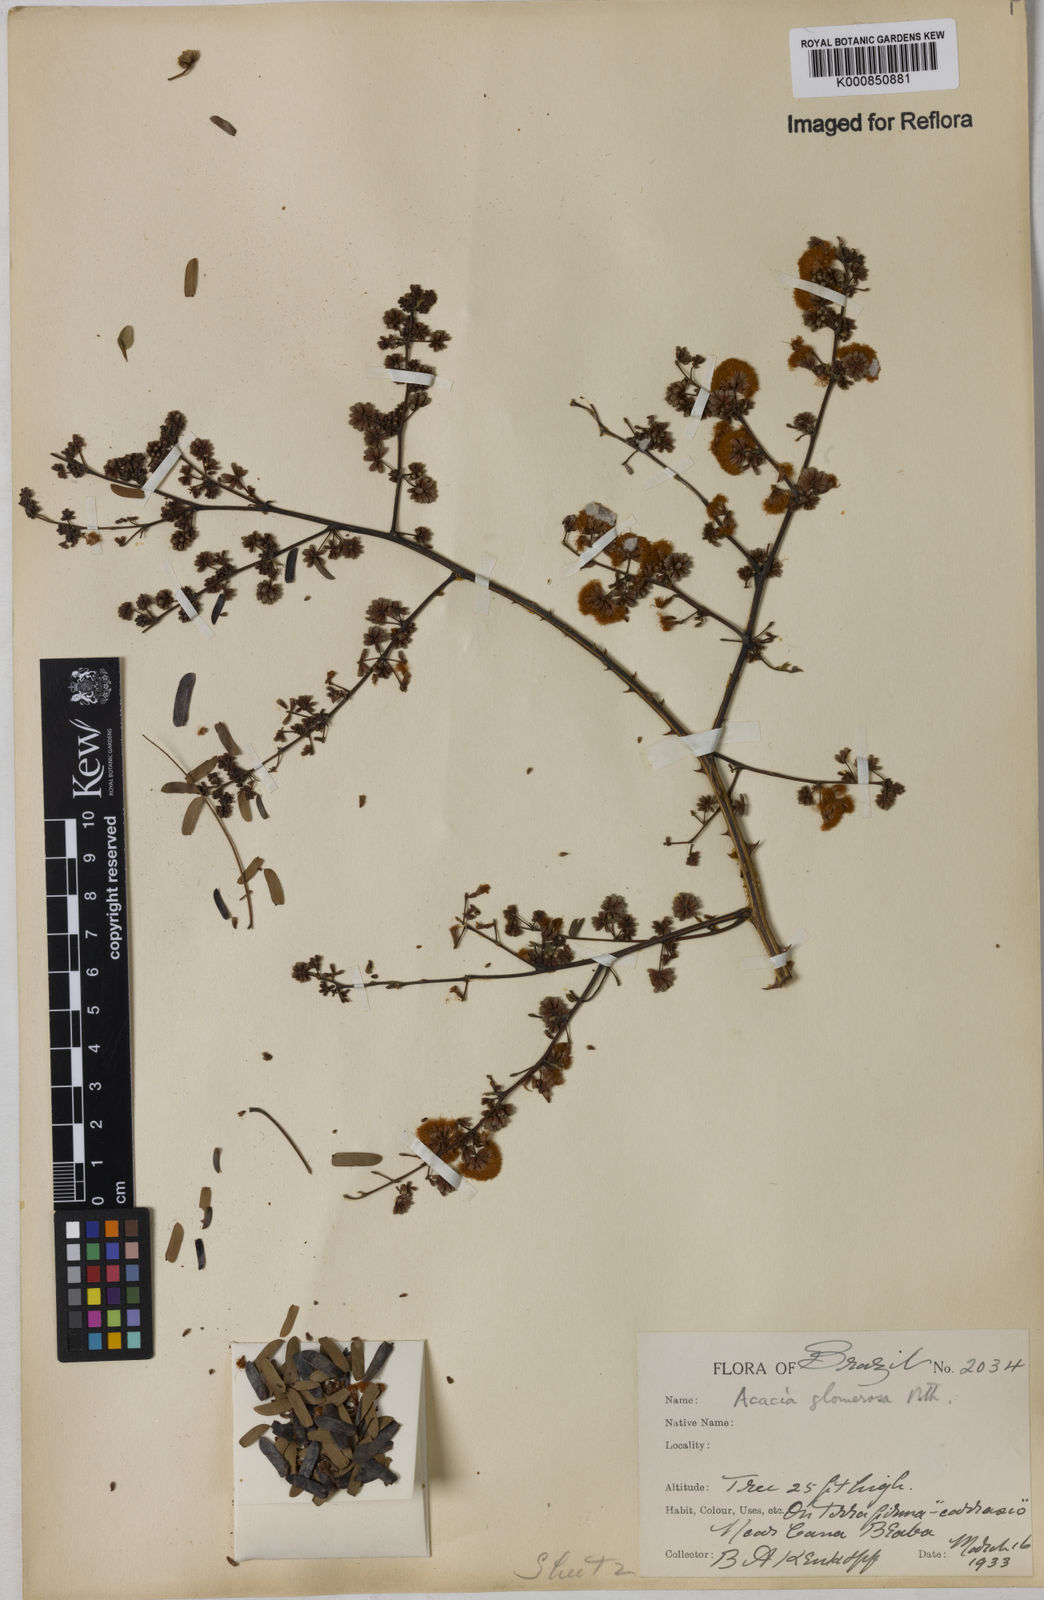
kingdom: Plantae
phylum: Tracheophyta
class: Magnoliopsida
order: Fabales
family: Fabaceae
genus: Senegalia
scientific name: Senegalia polyphylla
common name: White-tamarind
